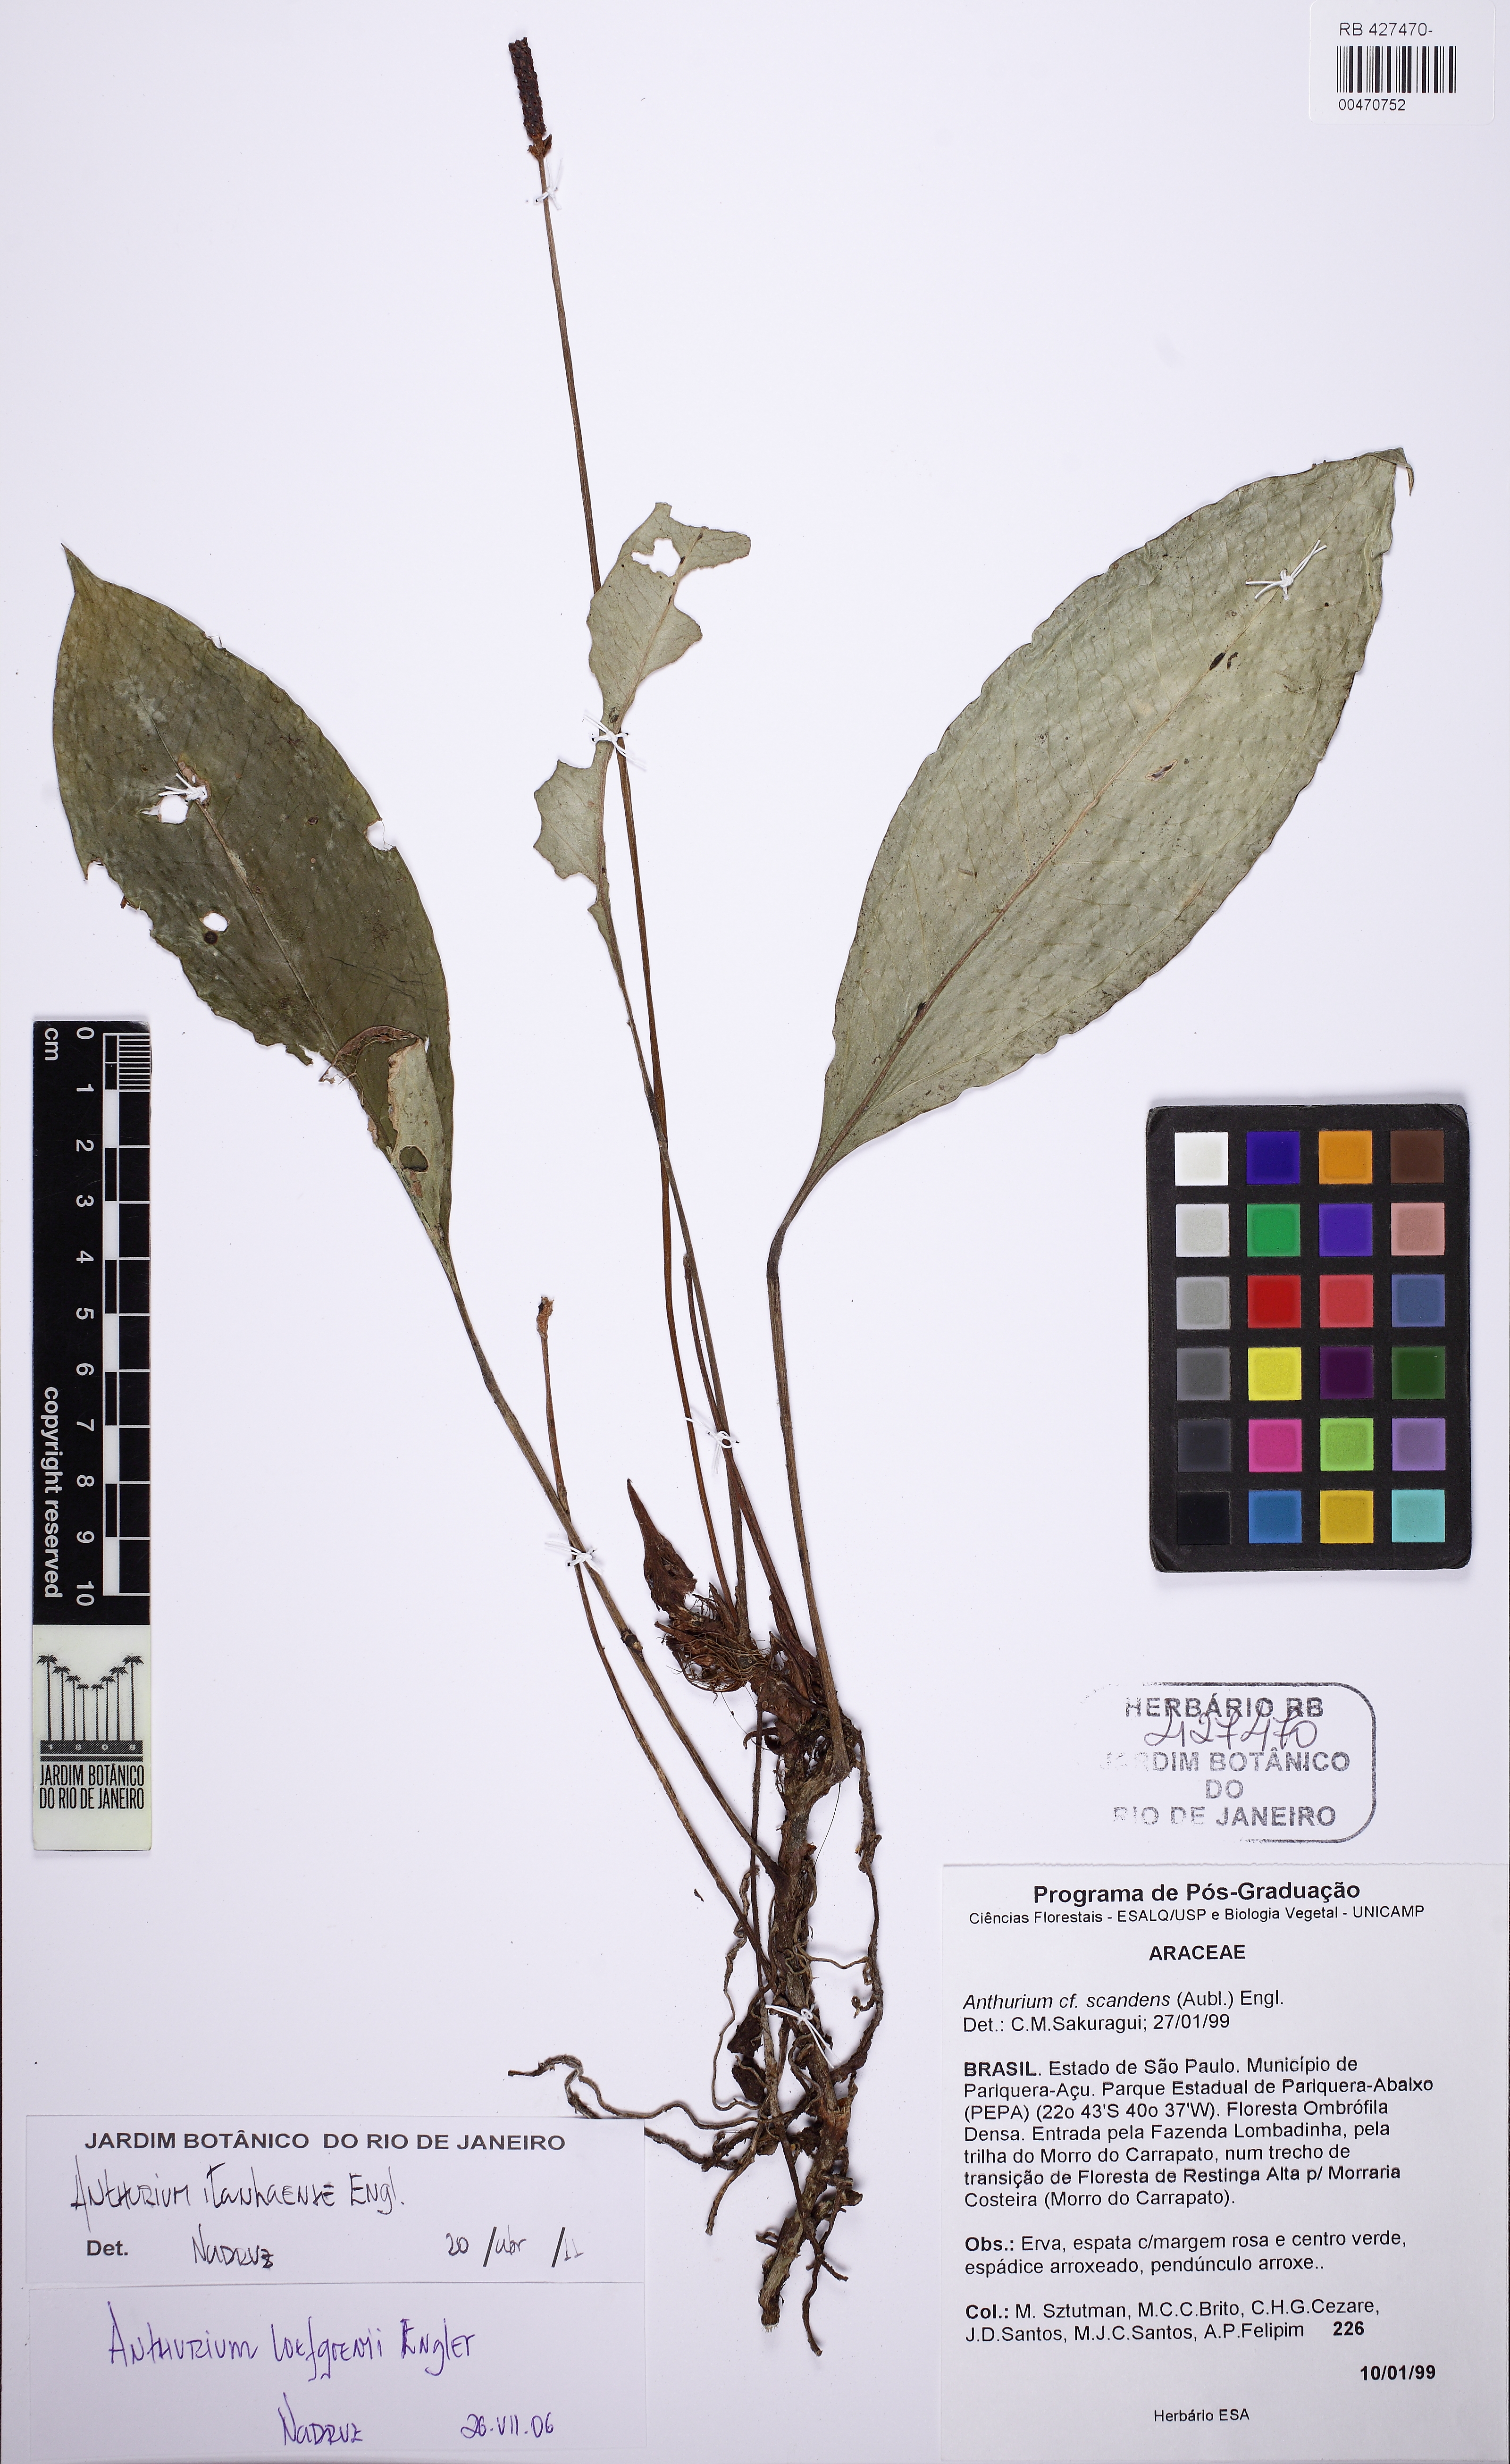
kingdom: Plantae
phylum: Tracheophyta
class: Liliopsida
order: Alismatales
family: Araceae
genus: Anthurium
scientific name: Anthurium loefgrenii
